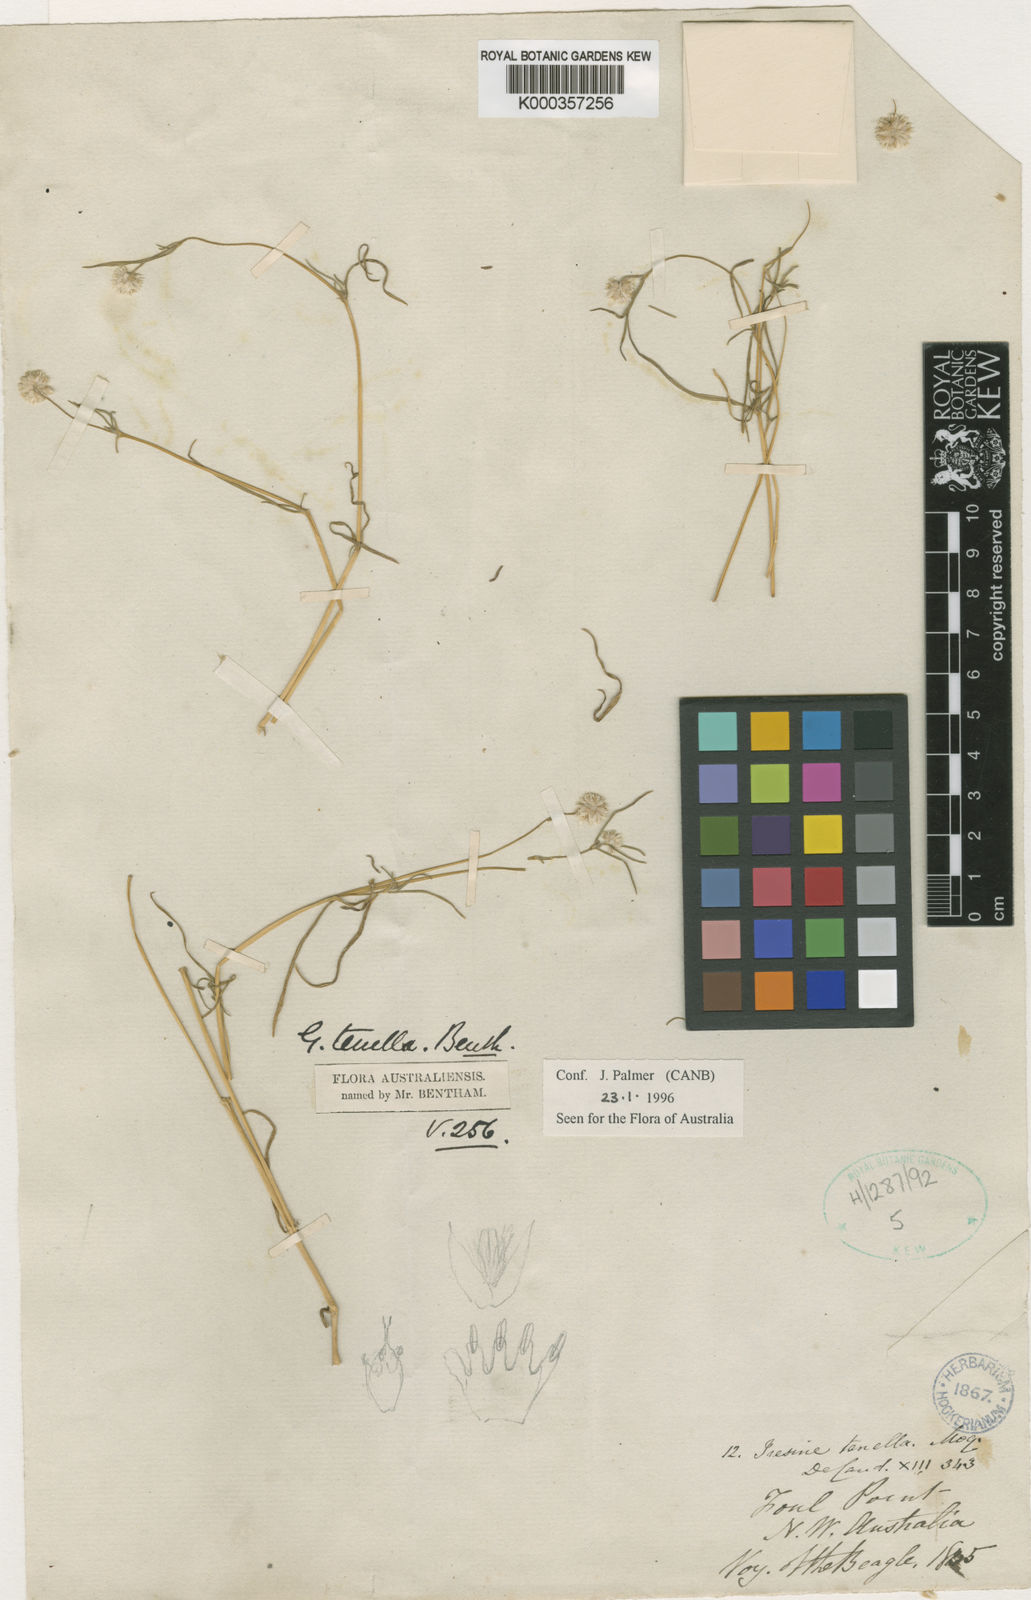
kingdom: Plantae
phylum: Tracheophyta
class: Magnoliopsida
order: Caryophyllales
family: Amaranthaceae
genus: Gomphrena
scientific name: Gomphrena tenella
